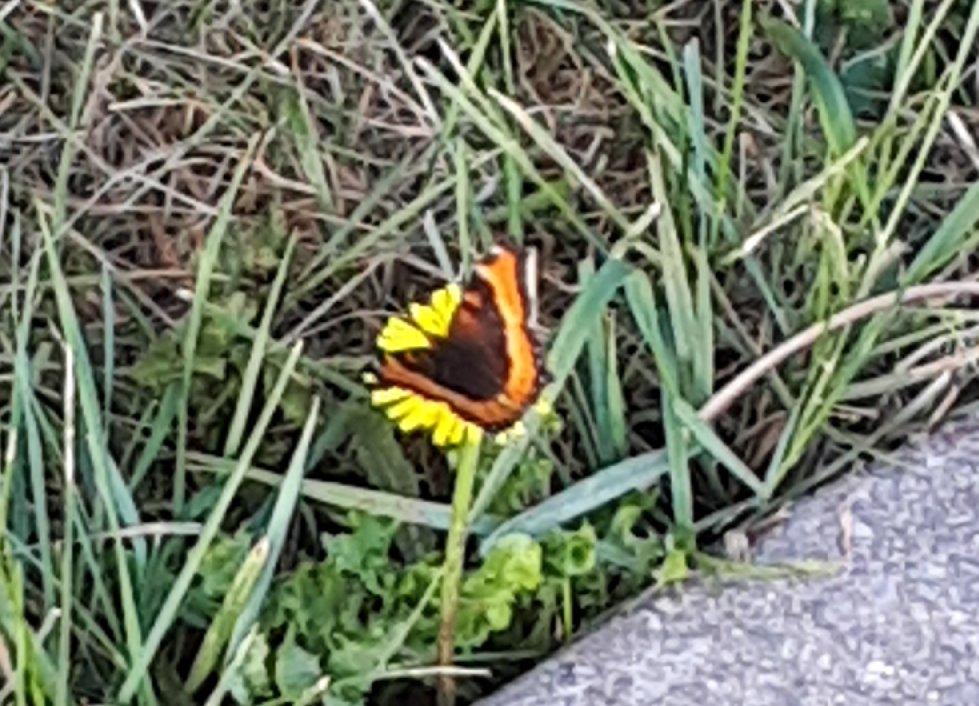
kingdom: Animalia
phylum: Arthropoda
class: Insecta
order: Lepidoptera
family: Nymphalidae
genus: Aglais
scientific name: Aglais milberti
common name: Milbert's Tortoiseshell
